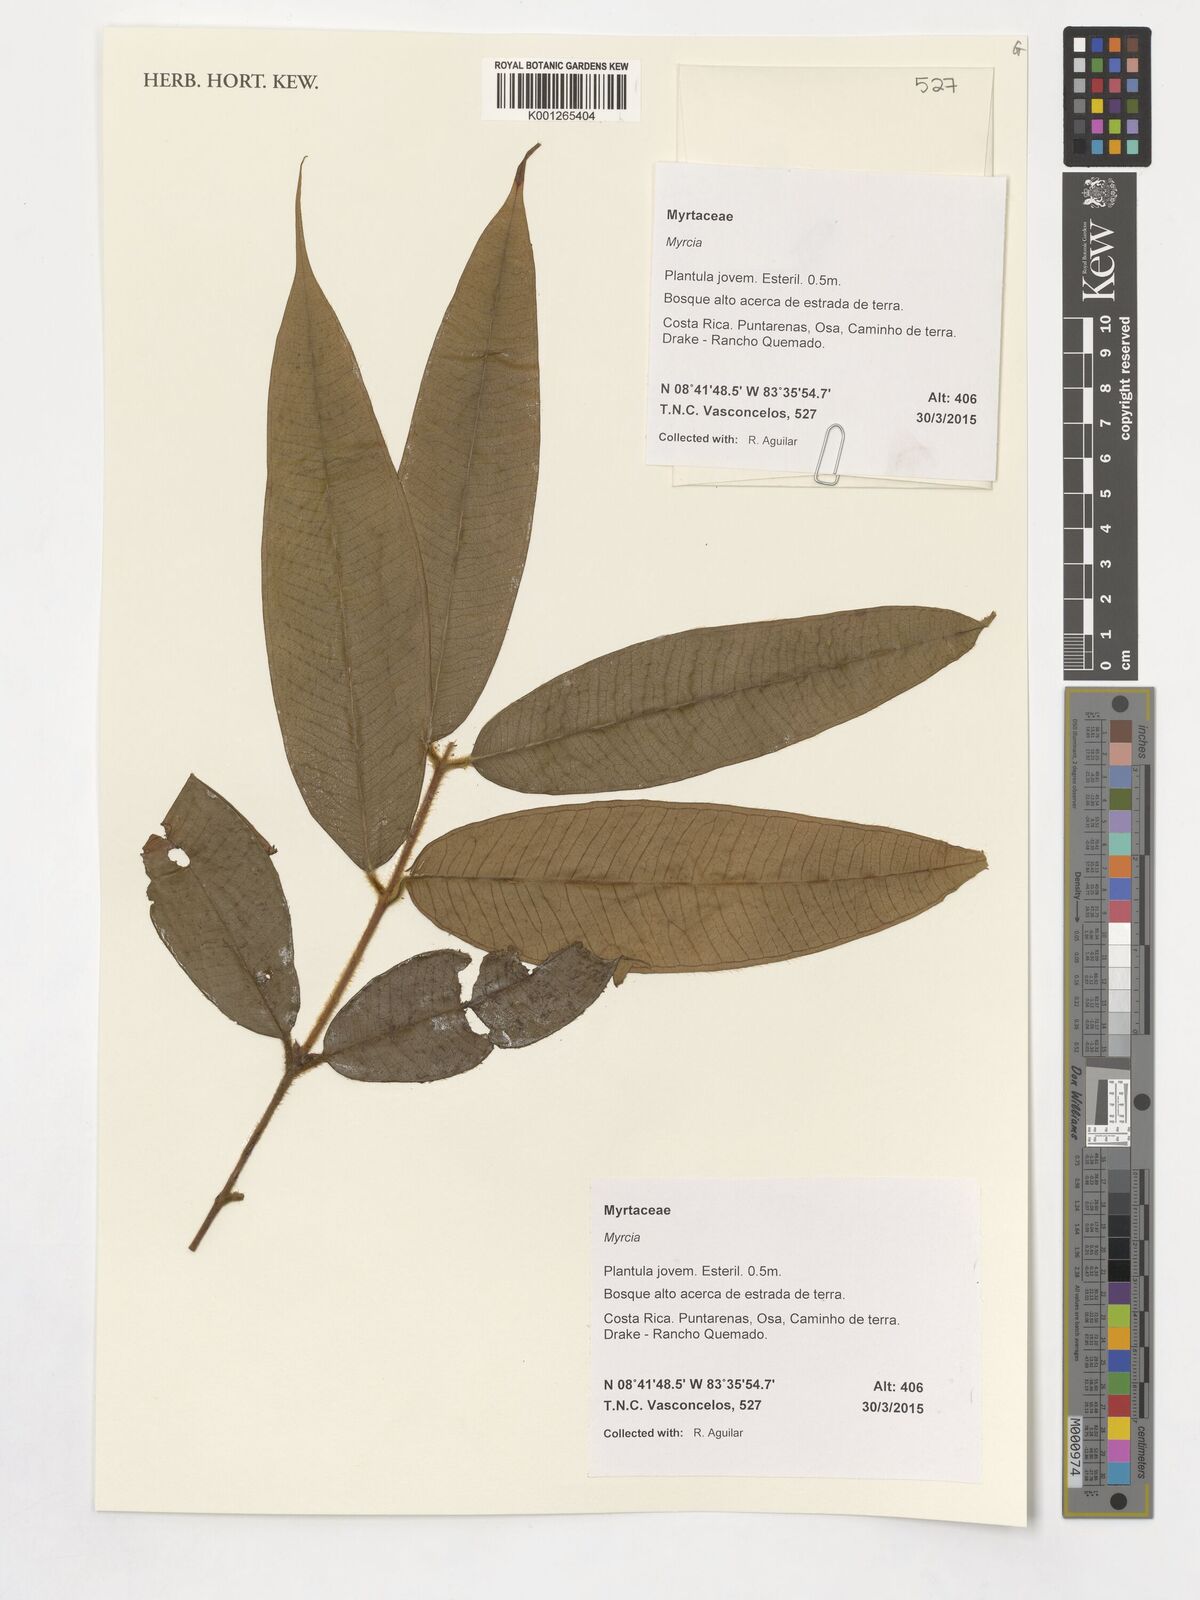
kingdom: Plantae
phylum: Tracheophyta
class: Magnoliopsida
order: Myrtales
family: Myrtaceae
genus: Myrcia
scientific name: Myrcia
